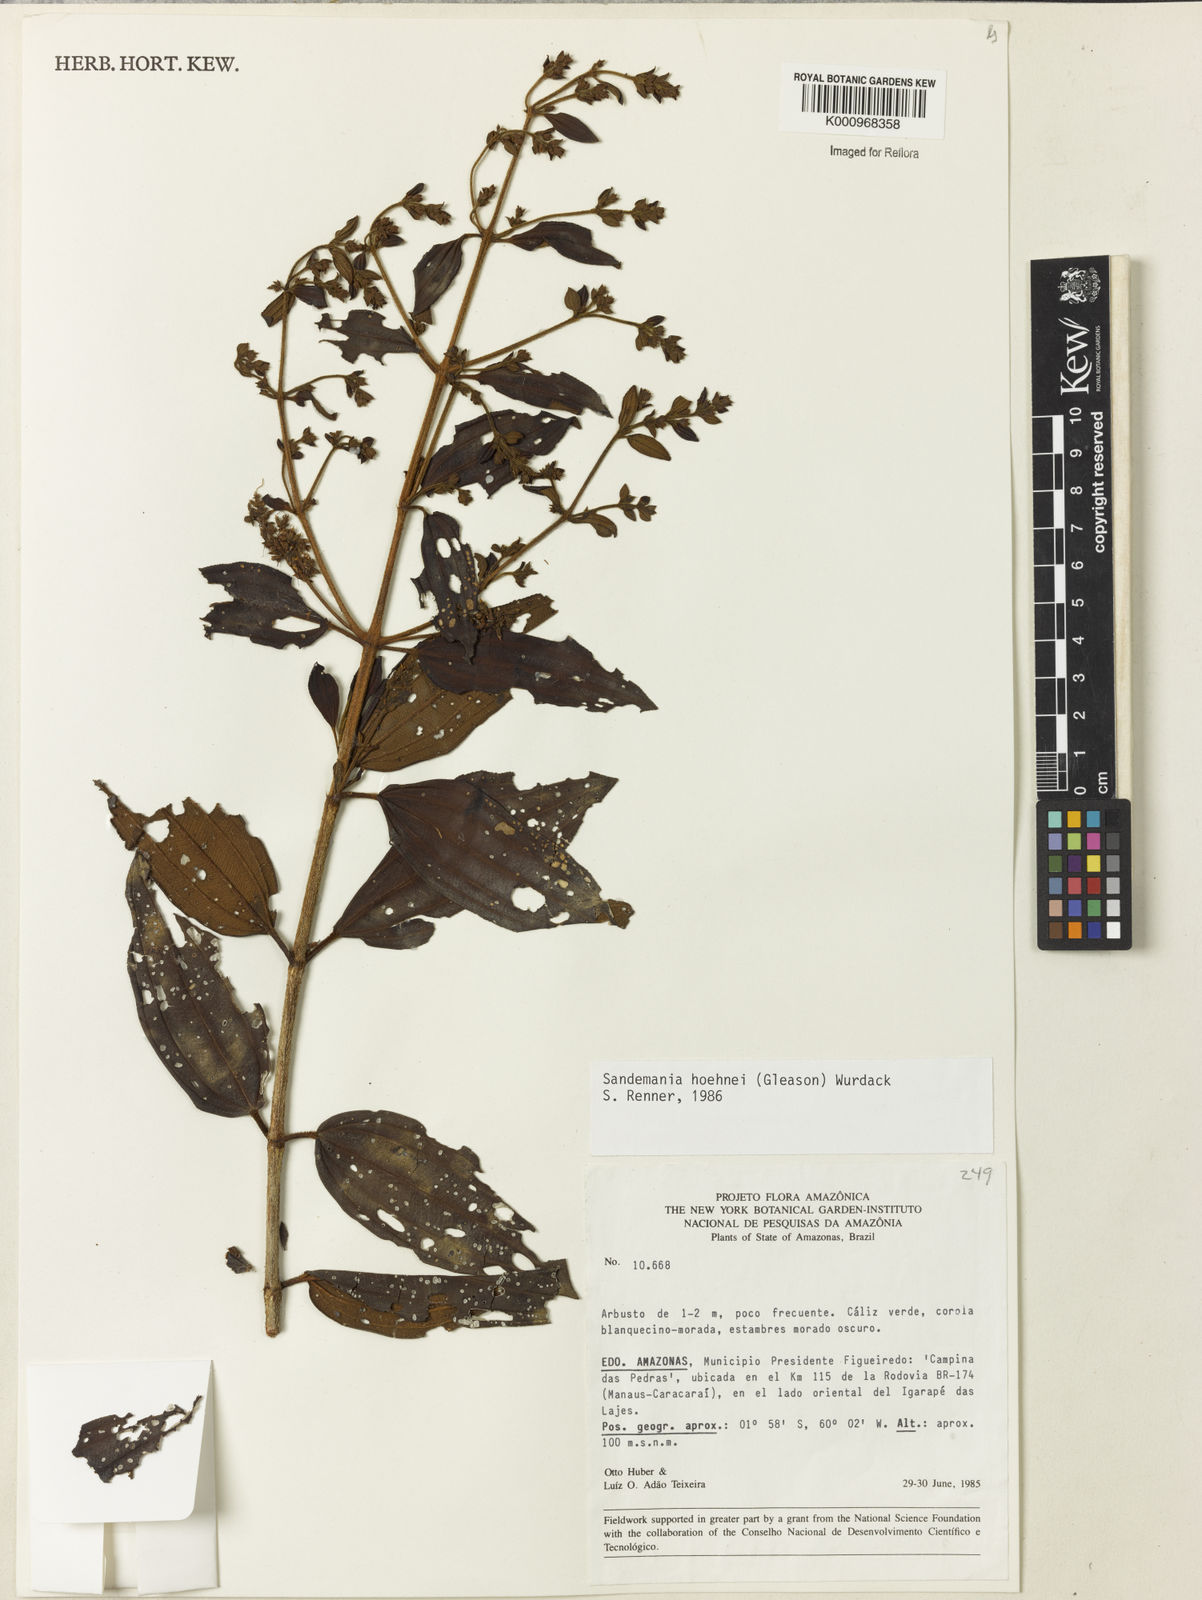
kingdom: Plantae
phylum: Tracheophyta
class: Magnoliopsida
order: Myrtales
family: Melastomataceae
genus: Sandemania
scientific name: Sandemania hoehnei
